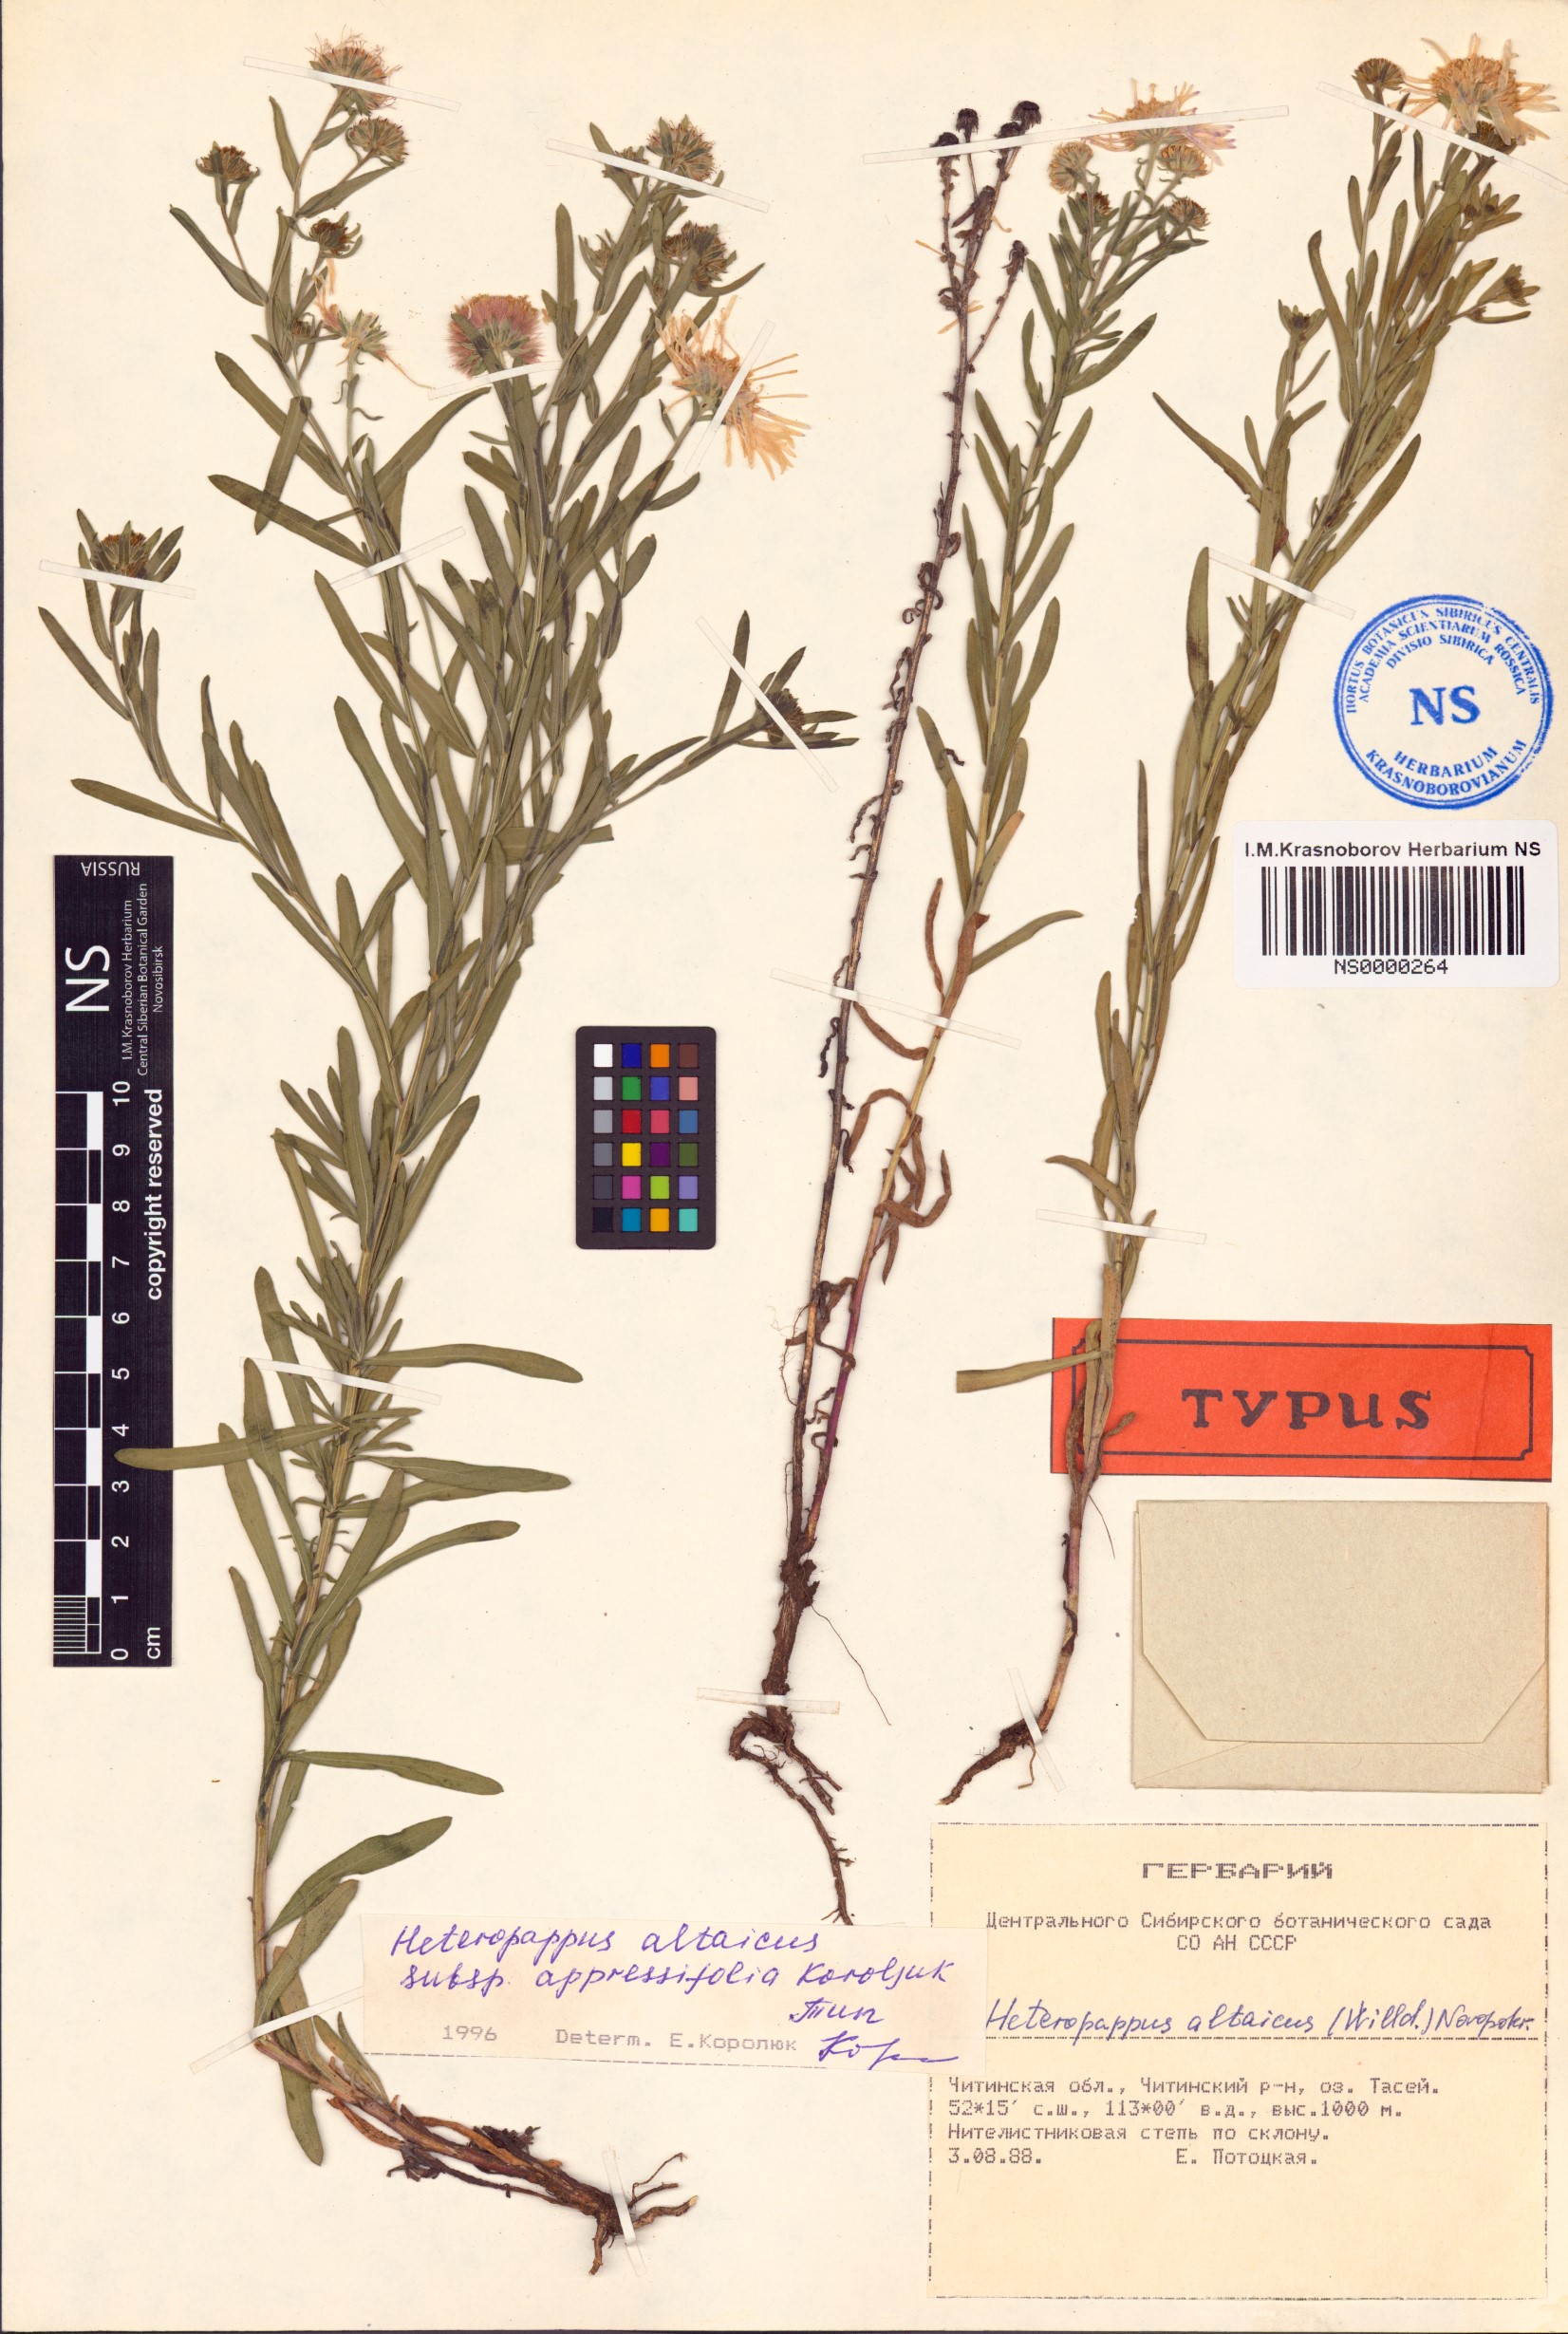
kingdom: Plantae
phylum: Tracheophyta
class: Magnoliopsida
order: Asterales
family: Asteraceae
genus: Heteropappus
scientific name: Heteropappus altaicus
